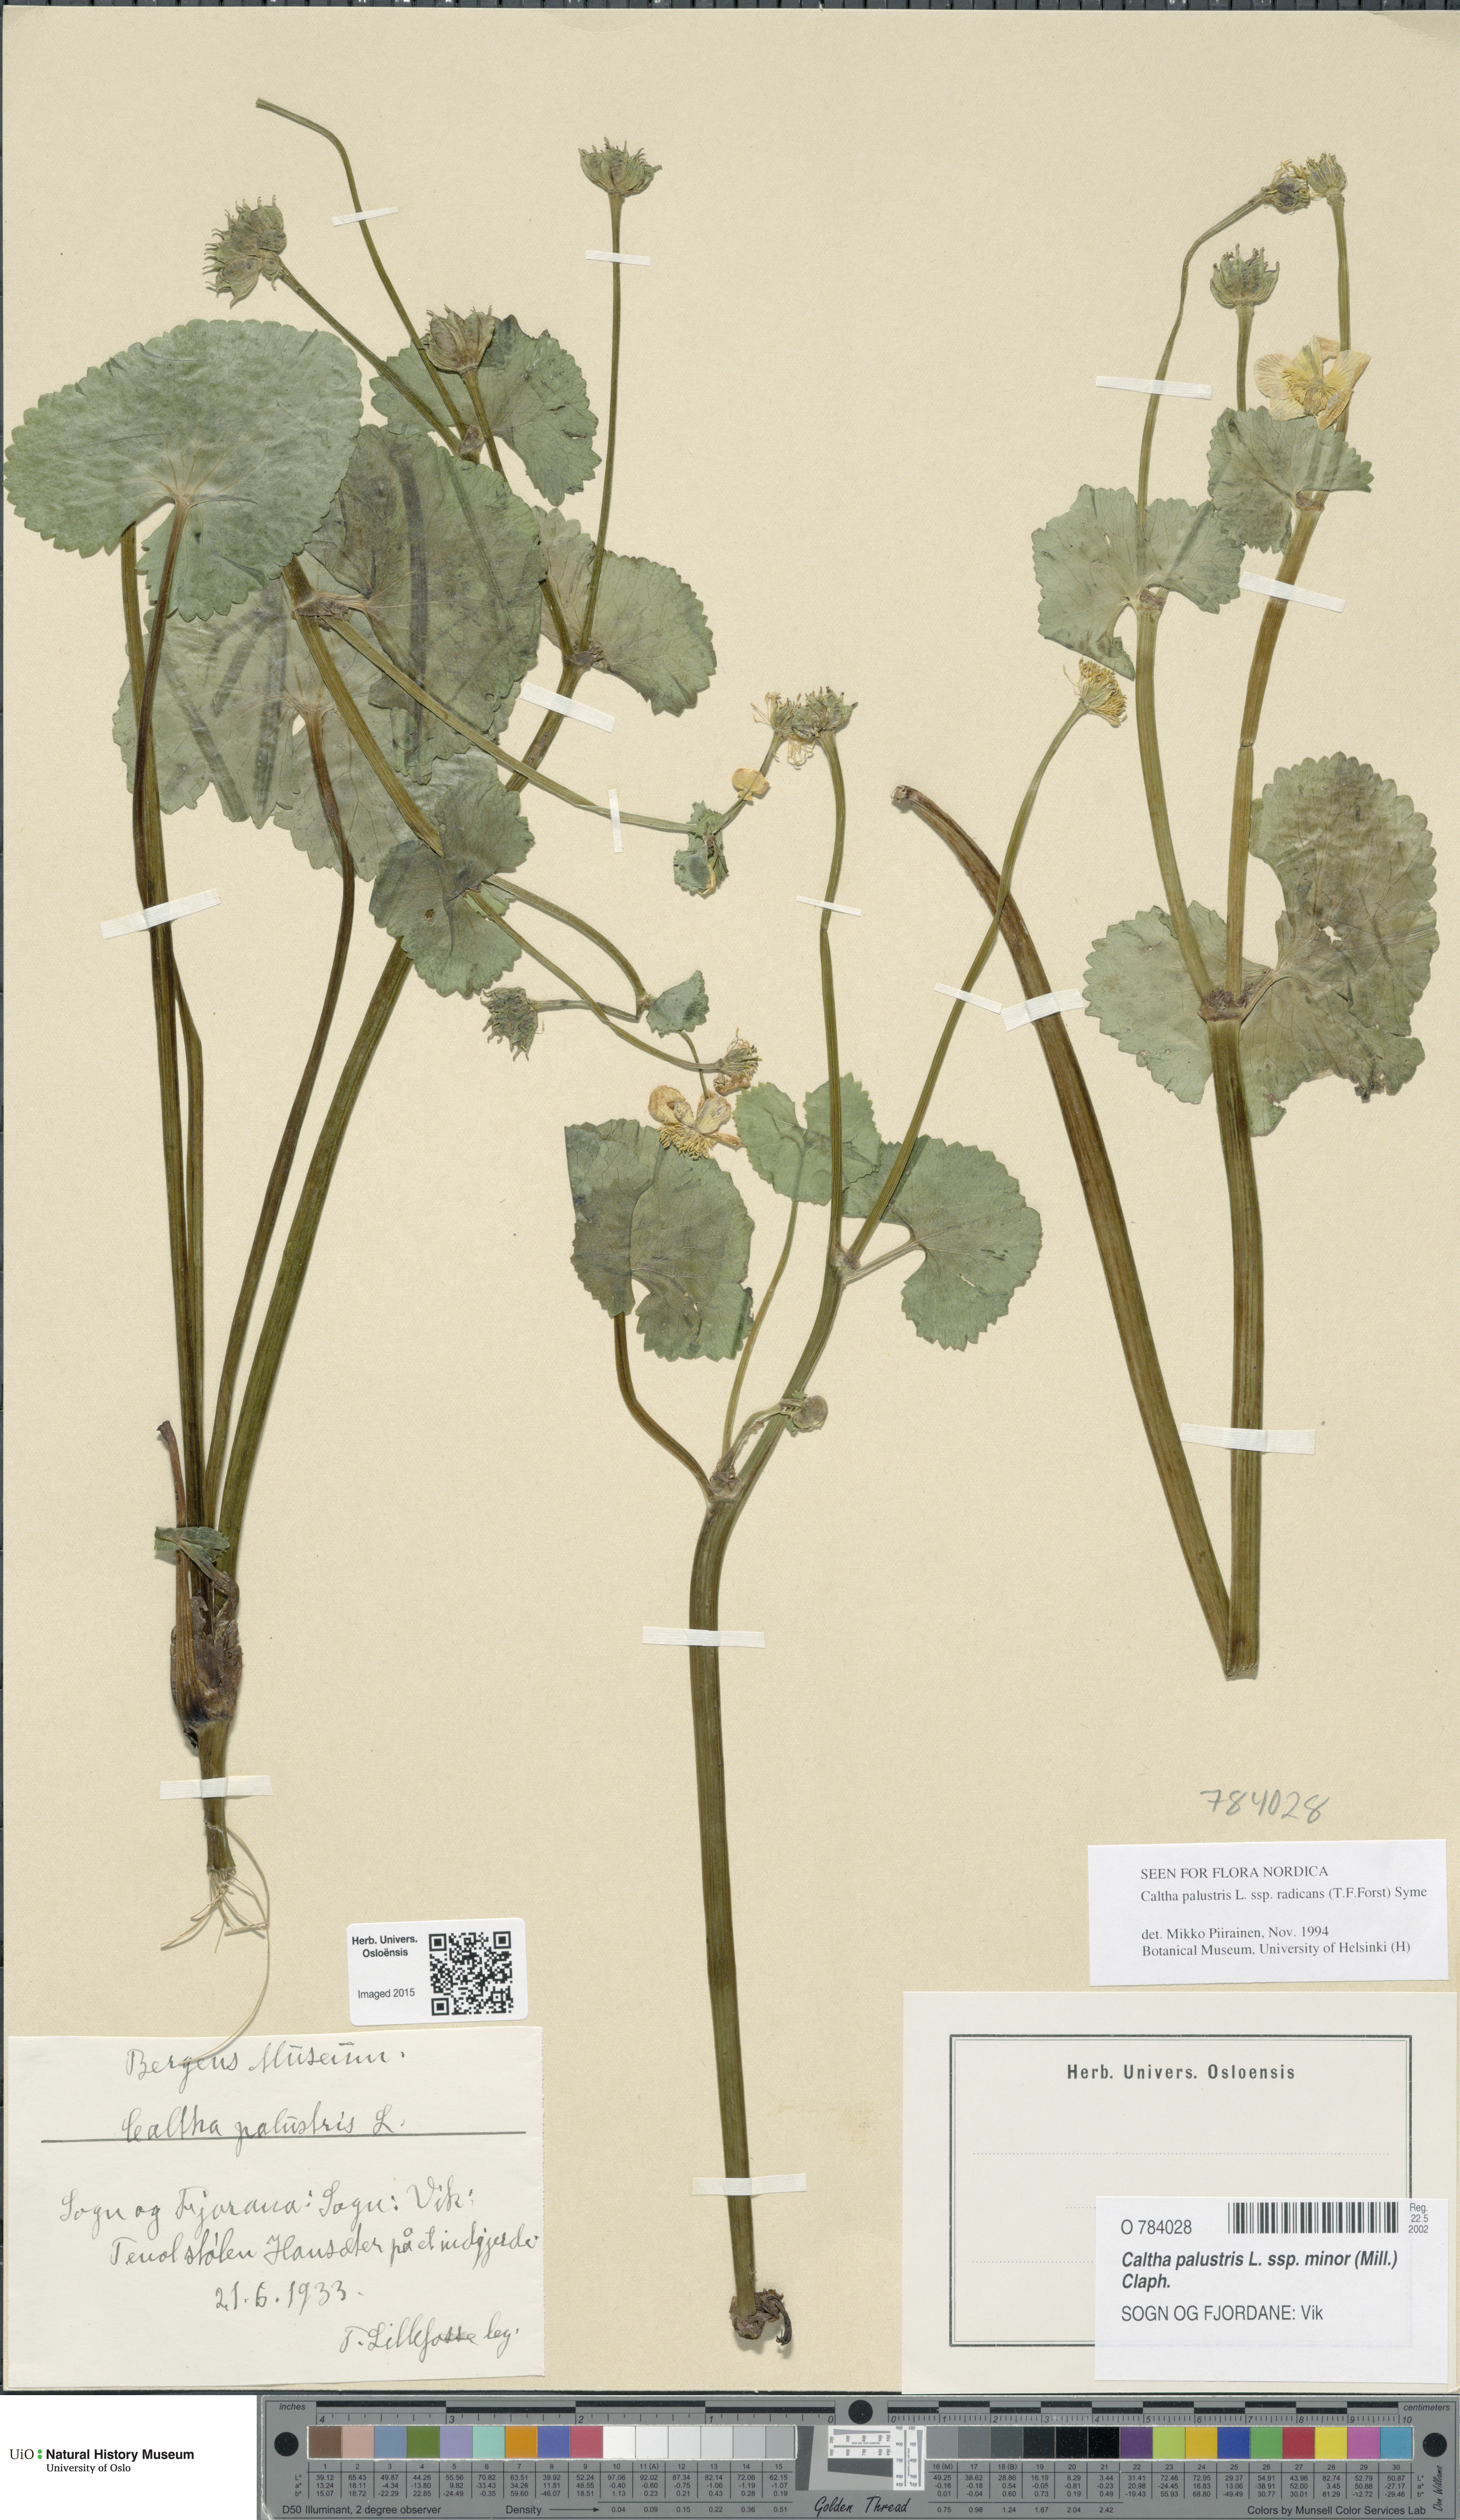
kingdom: Plantae
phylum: Tracheophyta
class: Magnoliopsida
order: Ranunculales
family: Ranunculaceae
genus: Caltha
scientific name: Caltha palustris
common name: Marsh marigold
